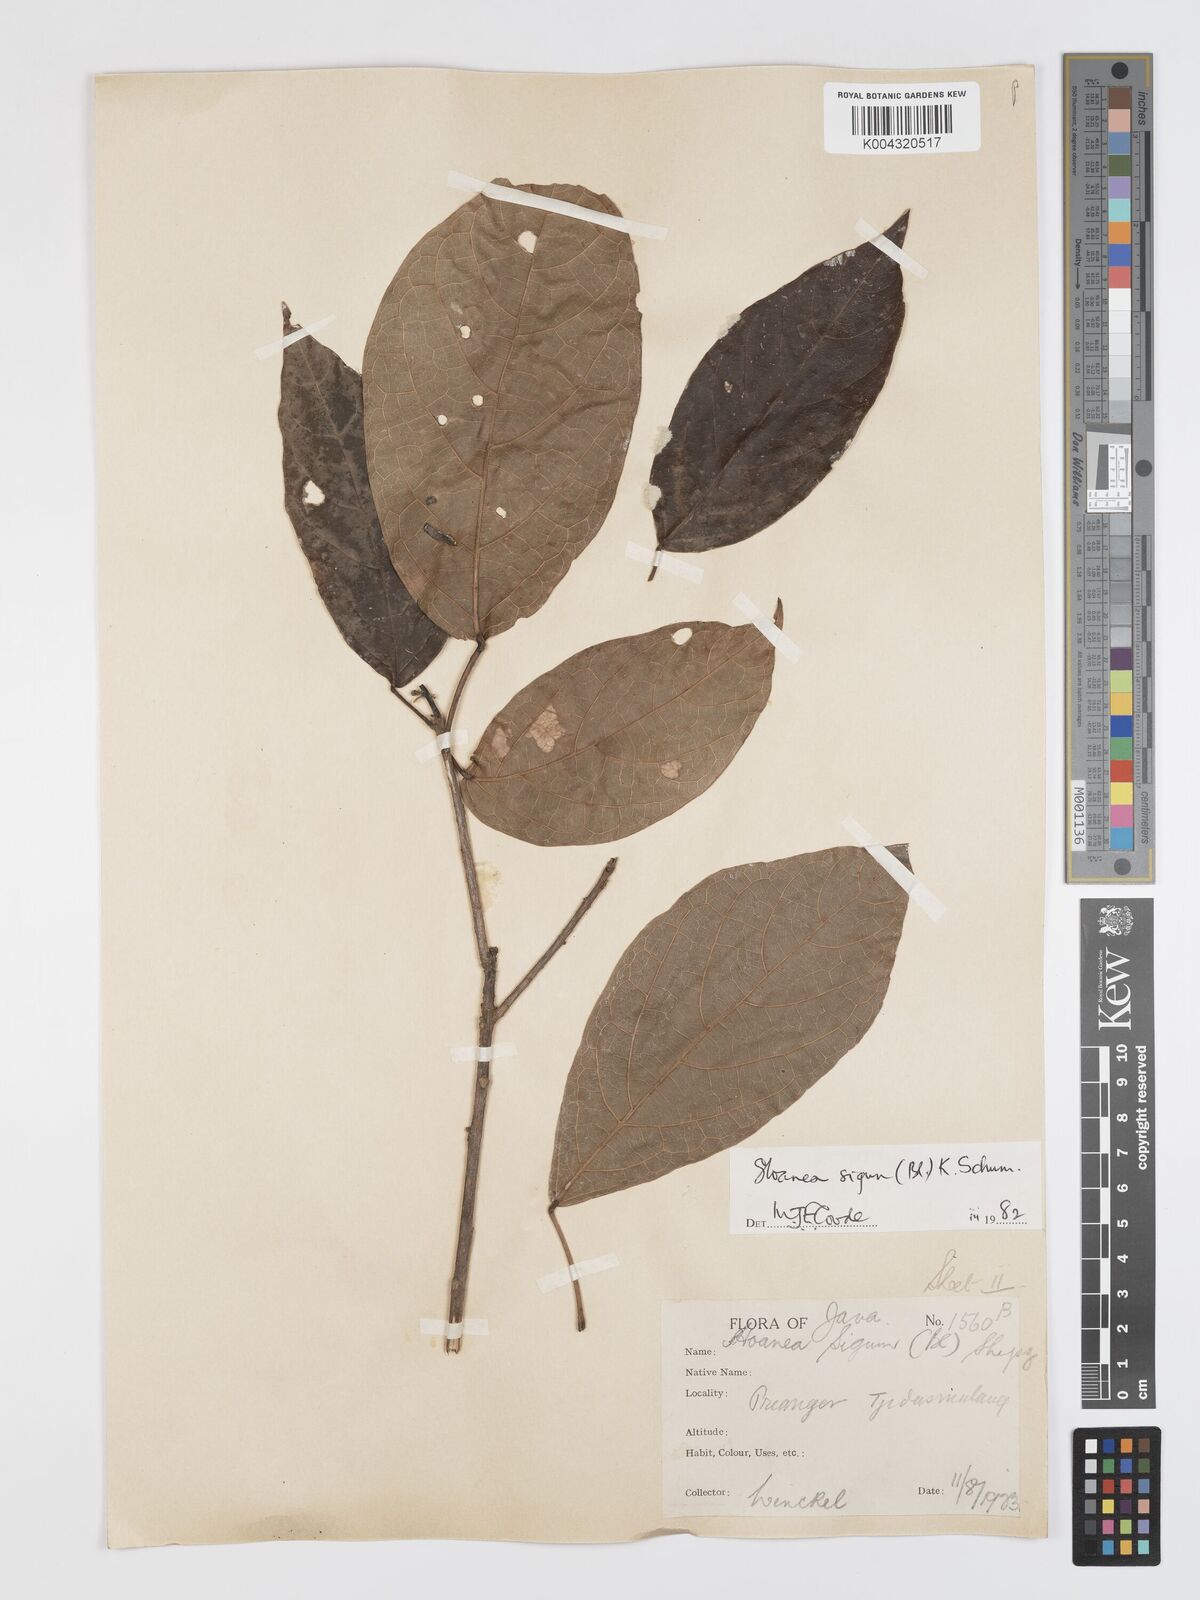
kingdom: Plantae
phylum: Tracheophyta
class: Magnoliopsida
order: Oxalidales
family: Elaeocarpaceae
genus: Sloanea
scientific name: Sloanea sigun
